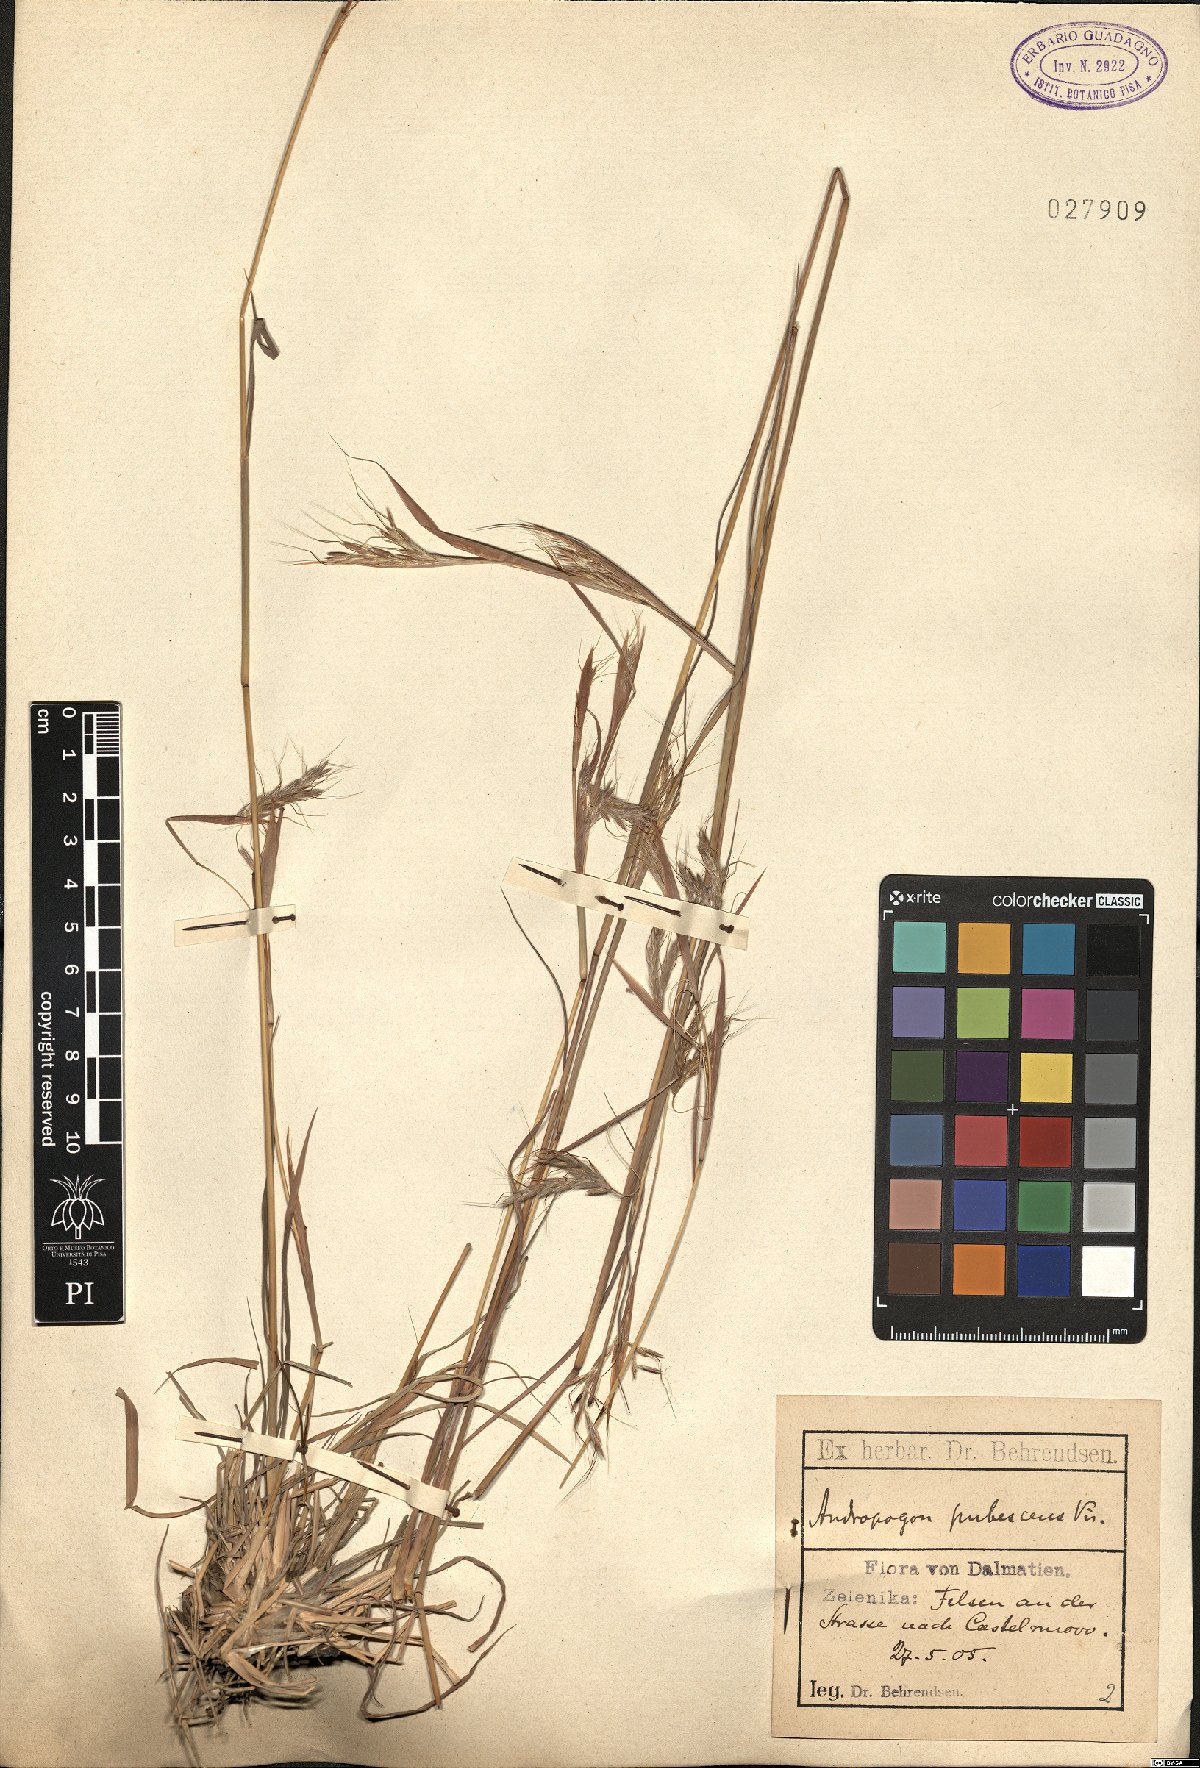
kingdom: Plantae
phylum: Tracheophyta
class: Liliopsida
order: Poales
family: Poaceae
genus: Hyparrhenia
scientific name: Hyparrhenia hirta
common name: Thatching grass
